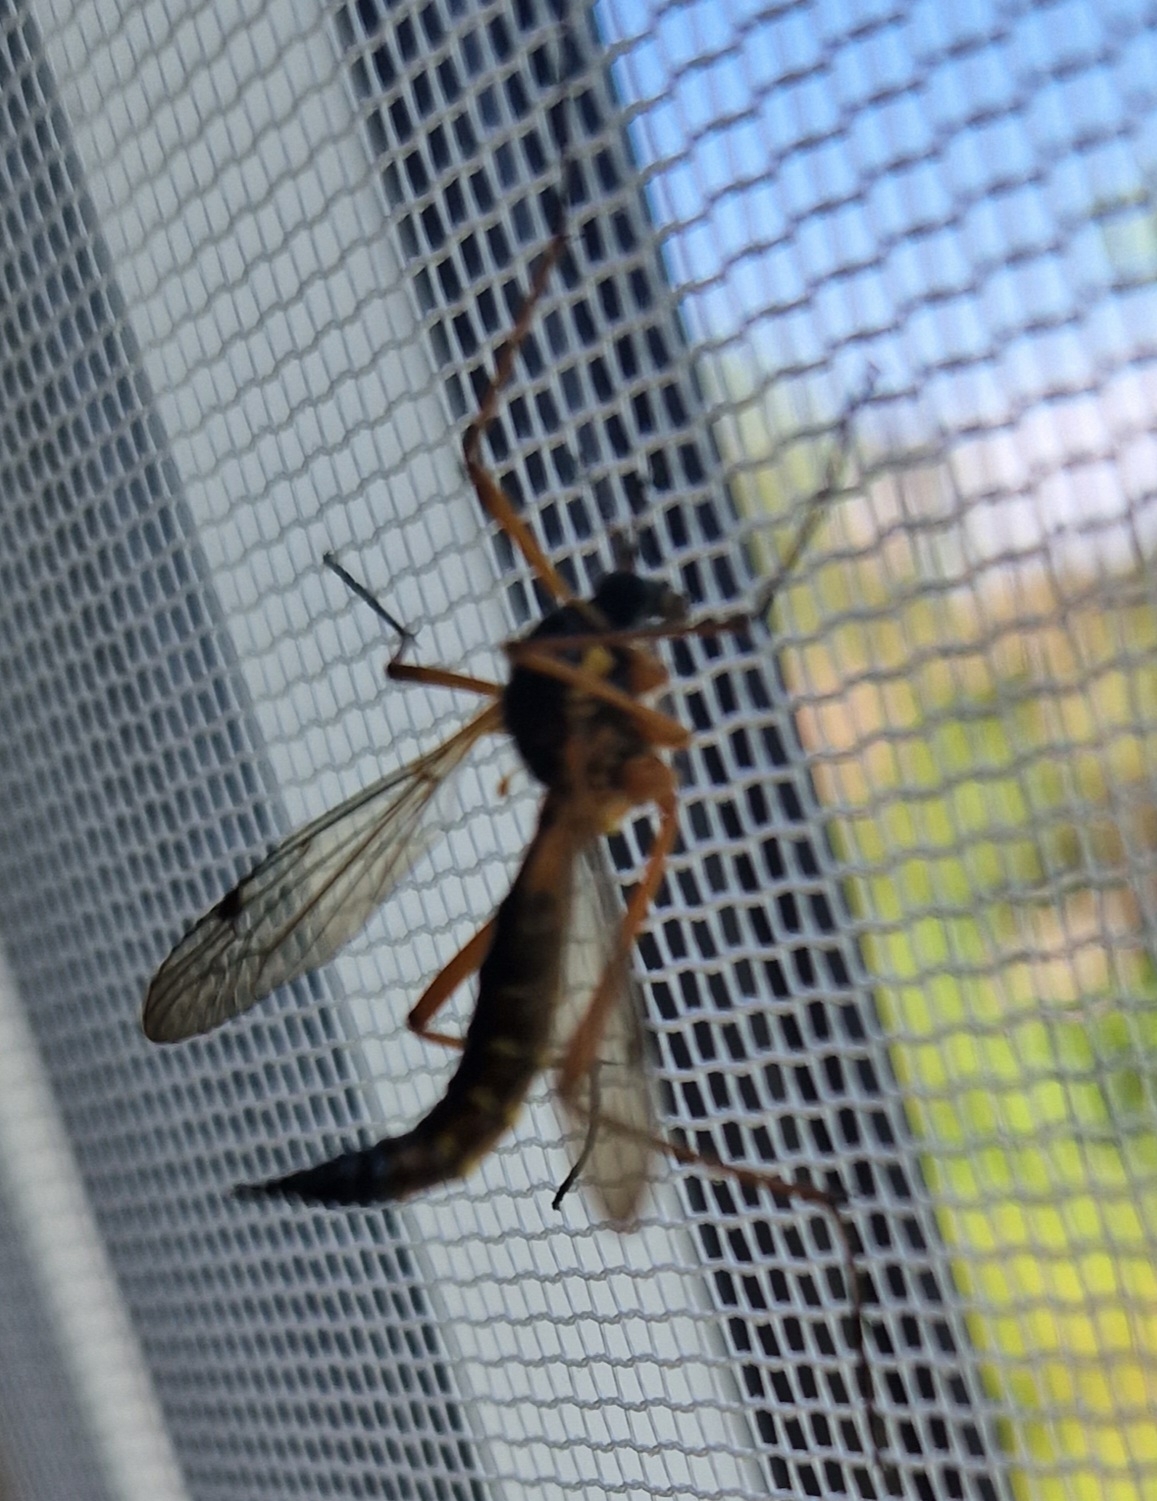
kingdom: Animalia
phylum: Arthropoda
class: Insecta
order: Diptera
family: Tipulidae
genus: Ctenophora
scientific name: Ctenophora pectinicornis
